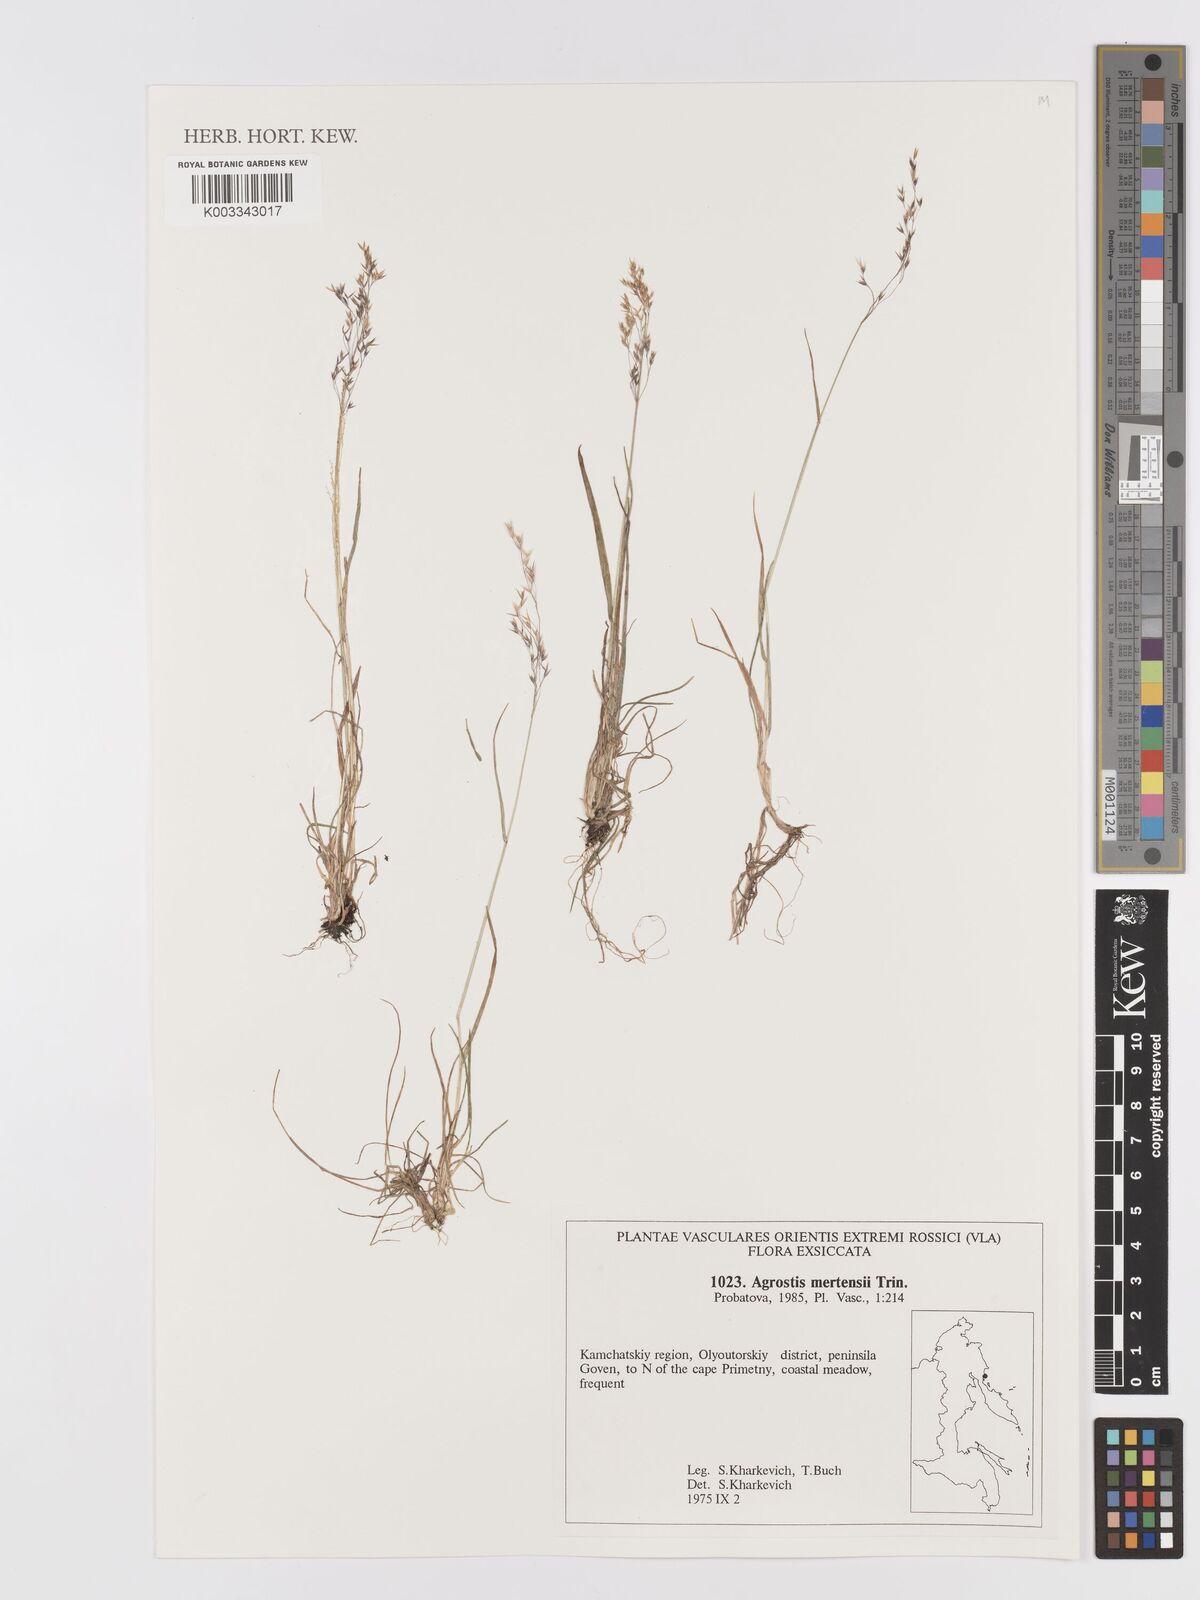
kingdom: Plantae
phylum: Tracheophyta
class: Liliopsida
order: Poales
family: Poaceae
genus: Agrostis
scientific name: Agrostis mertensii
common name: Northern bent
